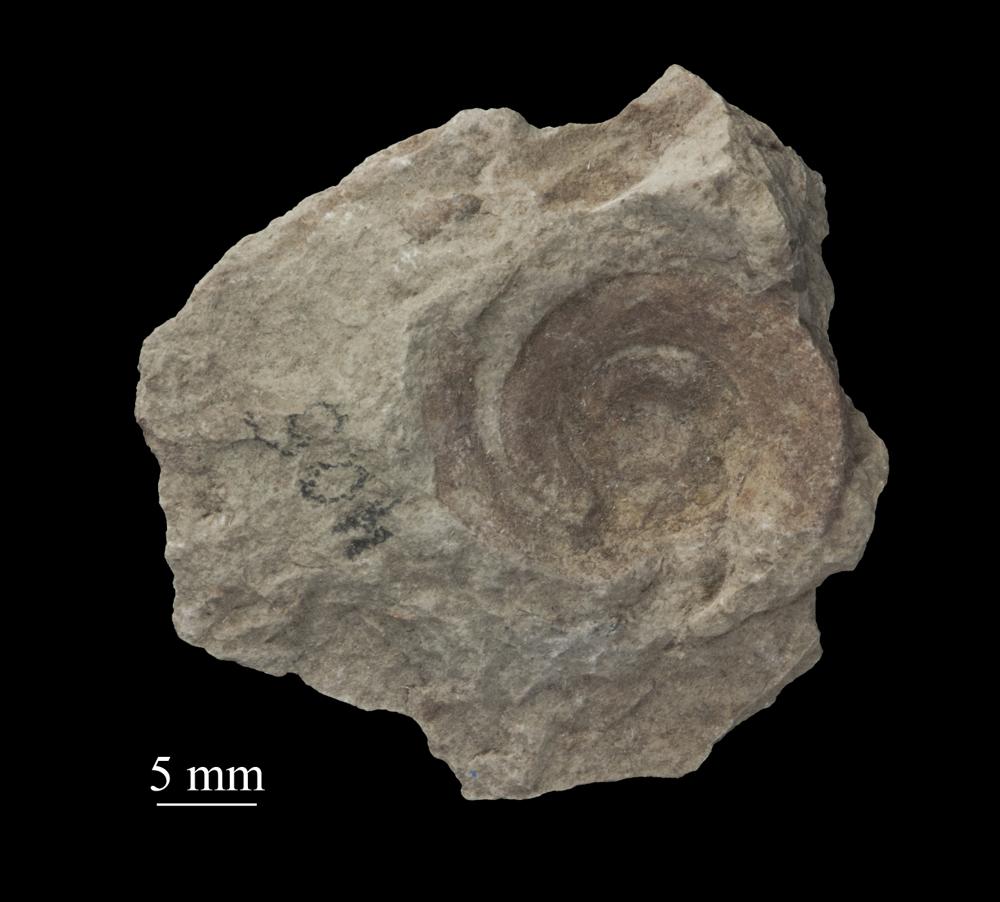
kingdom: Animalia
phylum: Mollusca
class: Gastropoda
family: Lesueurillidae
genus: Mestoronema
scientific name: Mestoronema Euomphalus marginalis
